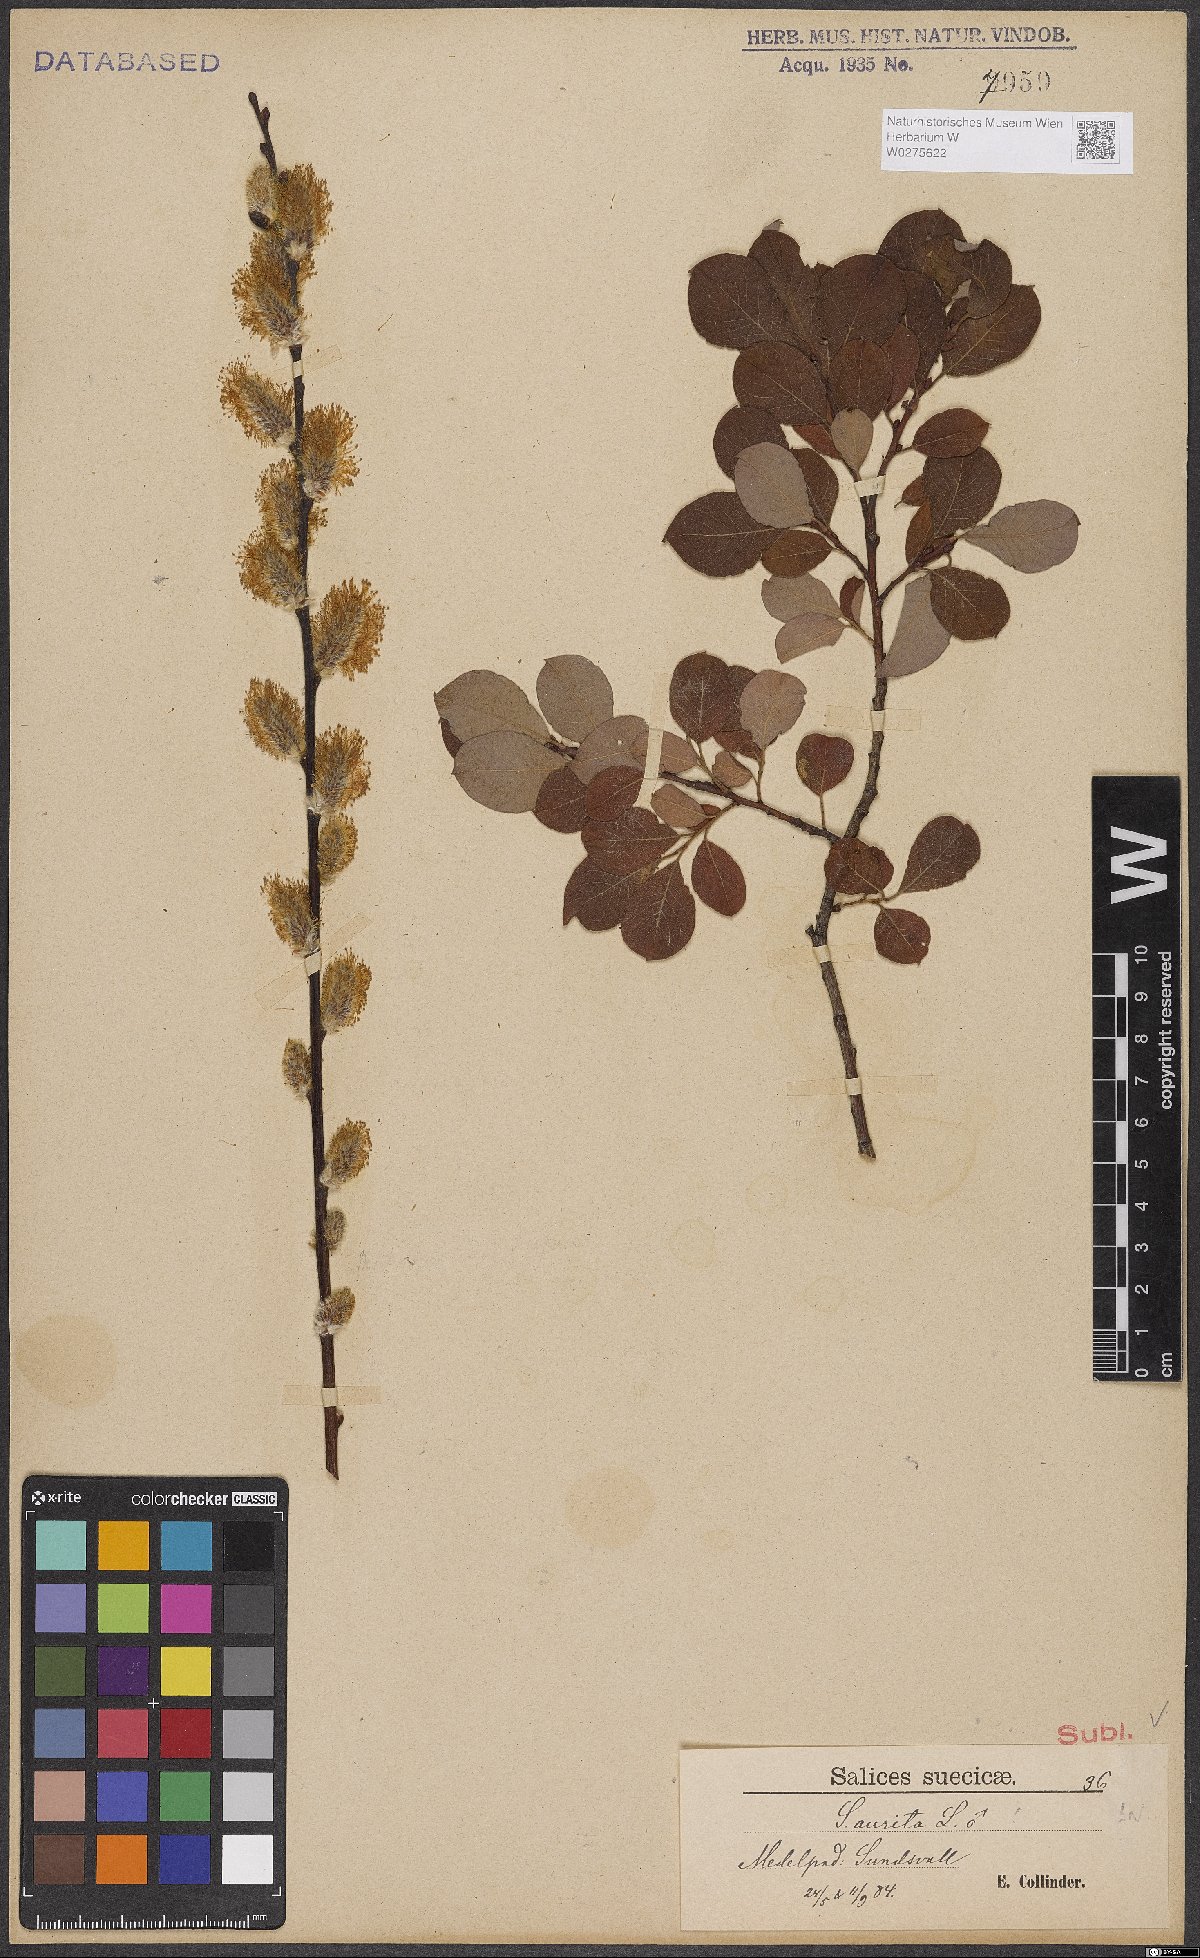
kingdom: Plantae
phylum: Tracheophyta
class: Magnoliopsida
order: Malpighiales
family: Salicaceae
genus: Salix
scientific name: Salix aurita
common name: Eared willow
